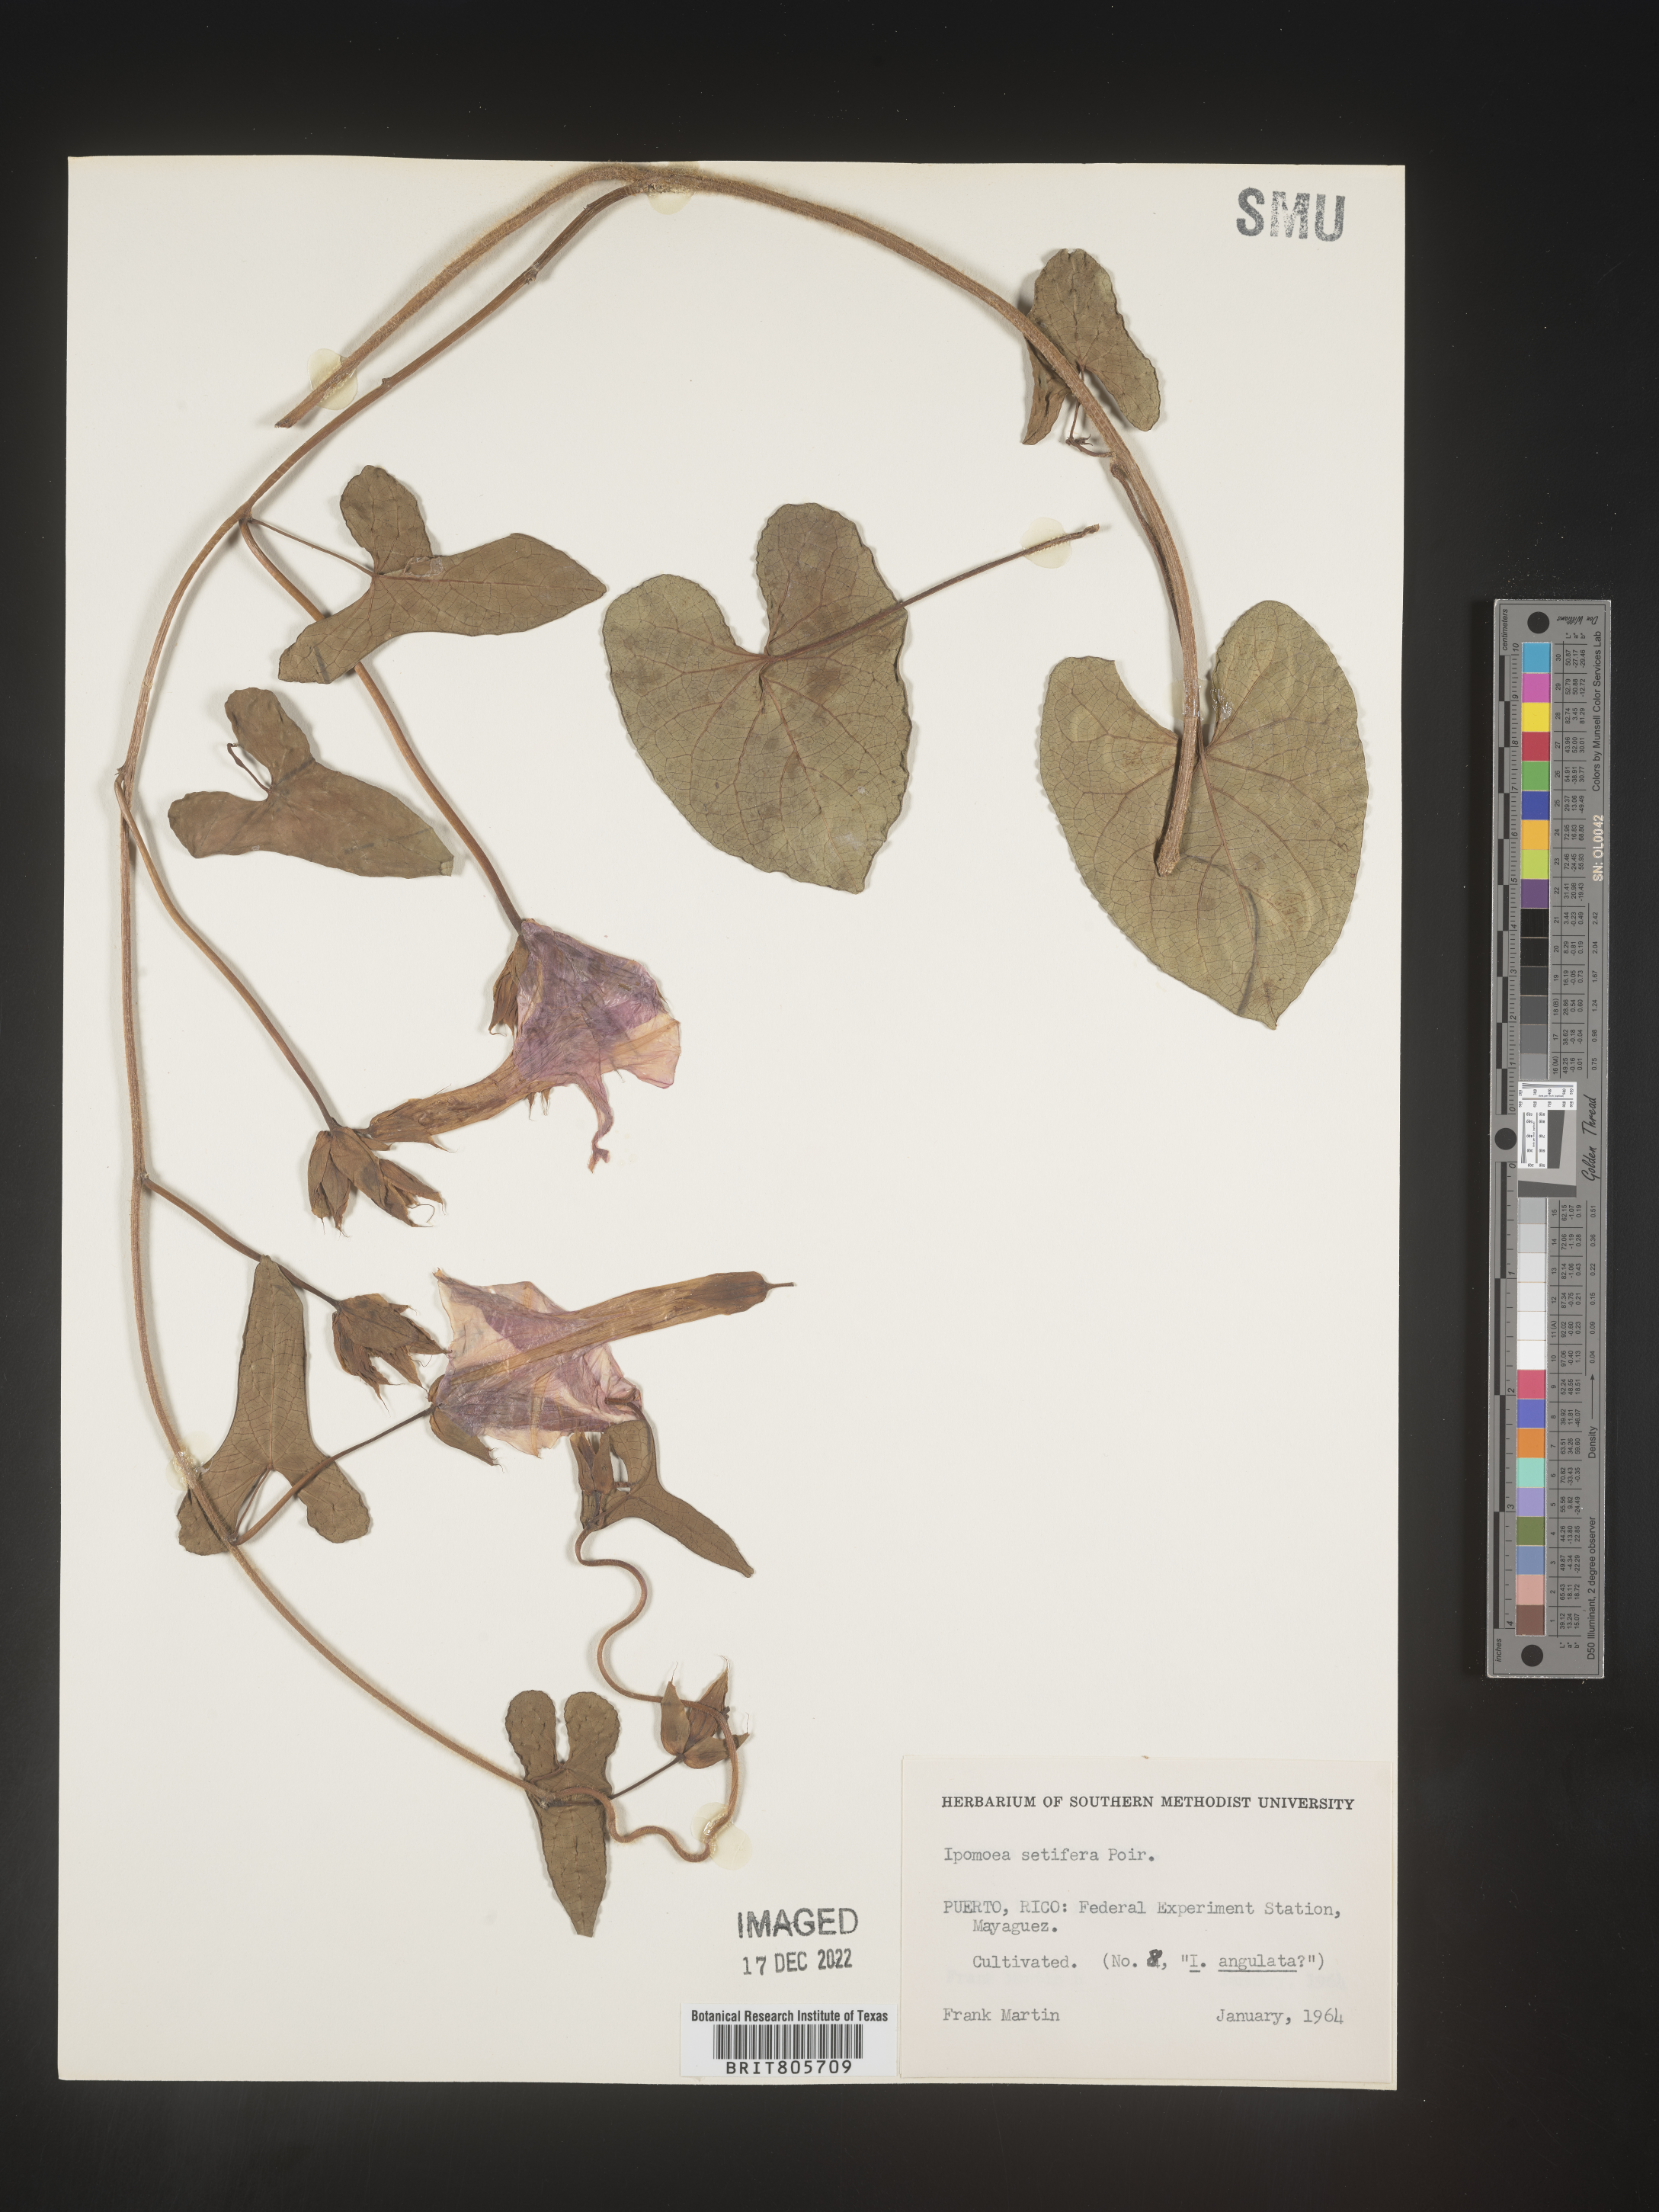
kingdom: Plantae
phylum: Tracheophyta
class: Magnoliopsida
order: Solanales
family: Convolvulaceae
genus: Ipomoea
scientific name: Ipomoea
